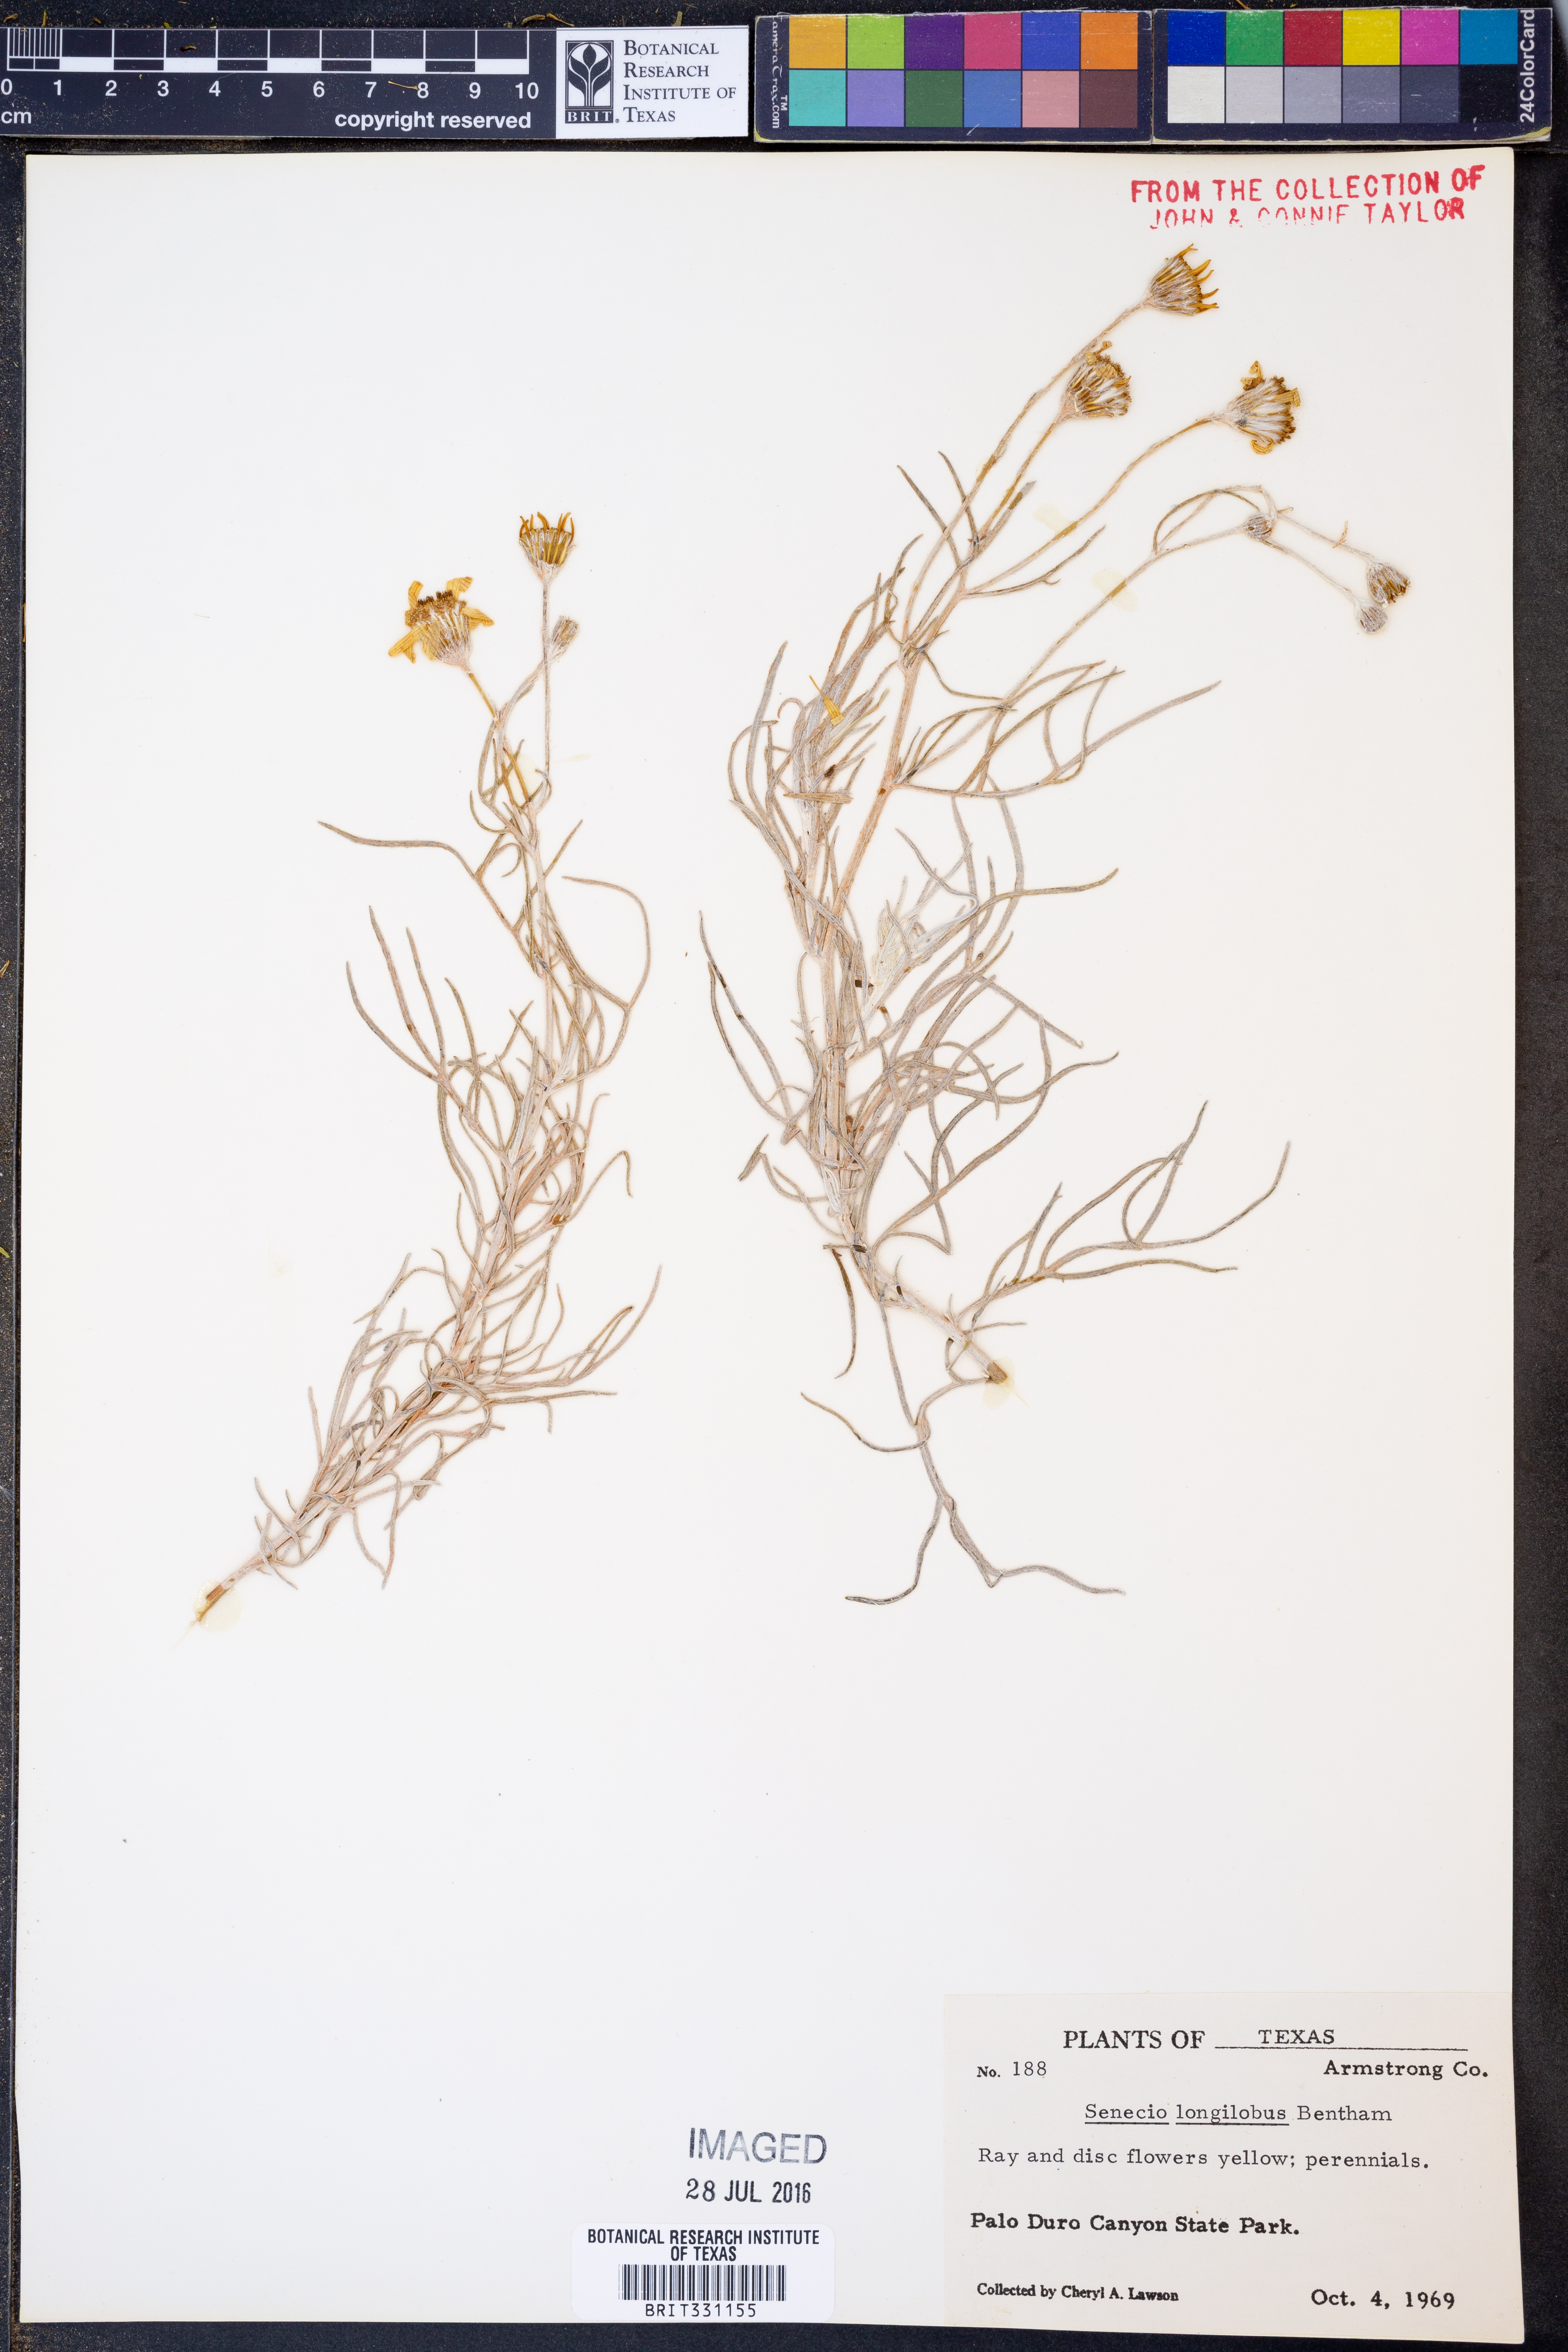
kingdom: Plantae
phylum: Tracheophyta
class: Magnoliopsida
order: Asterales
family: Asteraceae
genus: Senecio
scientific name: Senecio flaccidus
